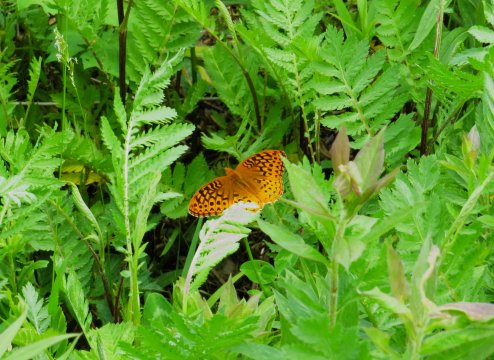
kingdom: Animalia
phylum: Arthropoda
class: Insecta
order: Lepidoptera
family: Nymphalidae
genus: Speyeria
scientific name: Speyeria cybele
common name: Great Spangled Fritillary
